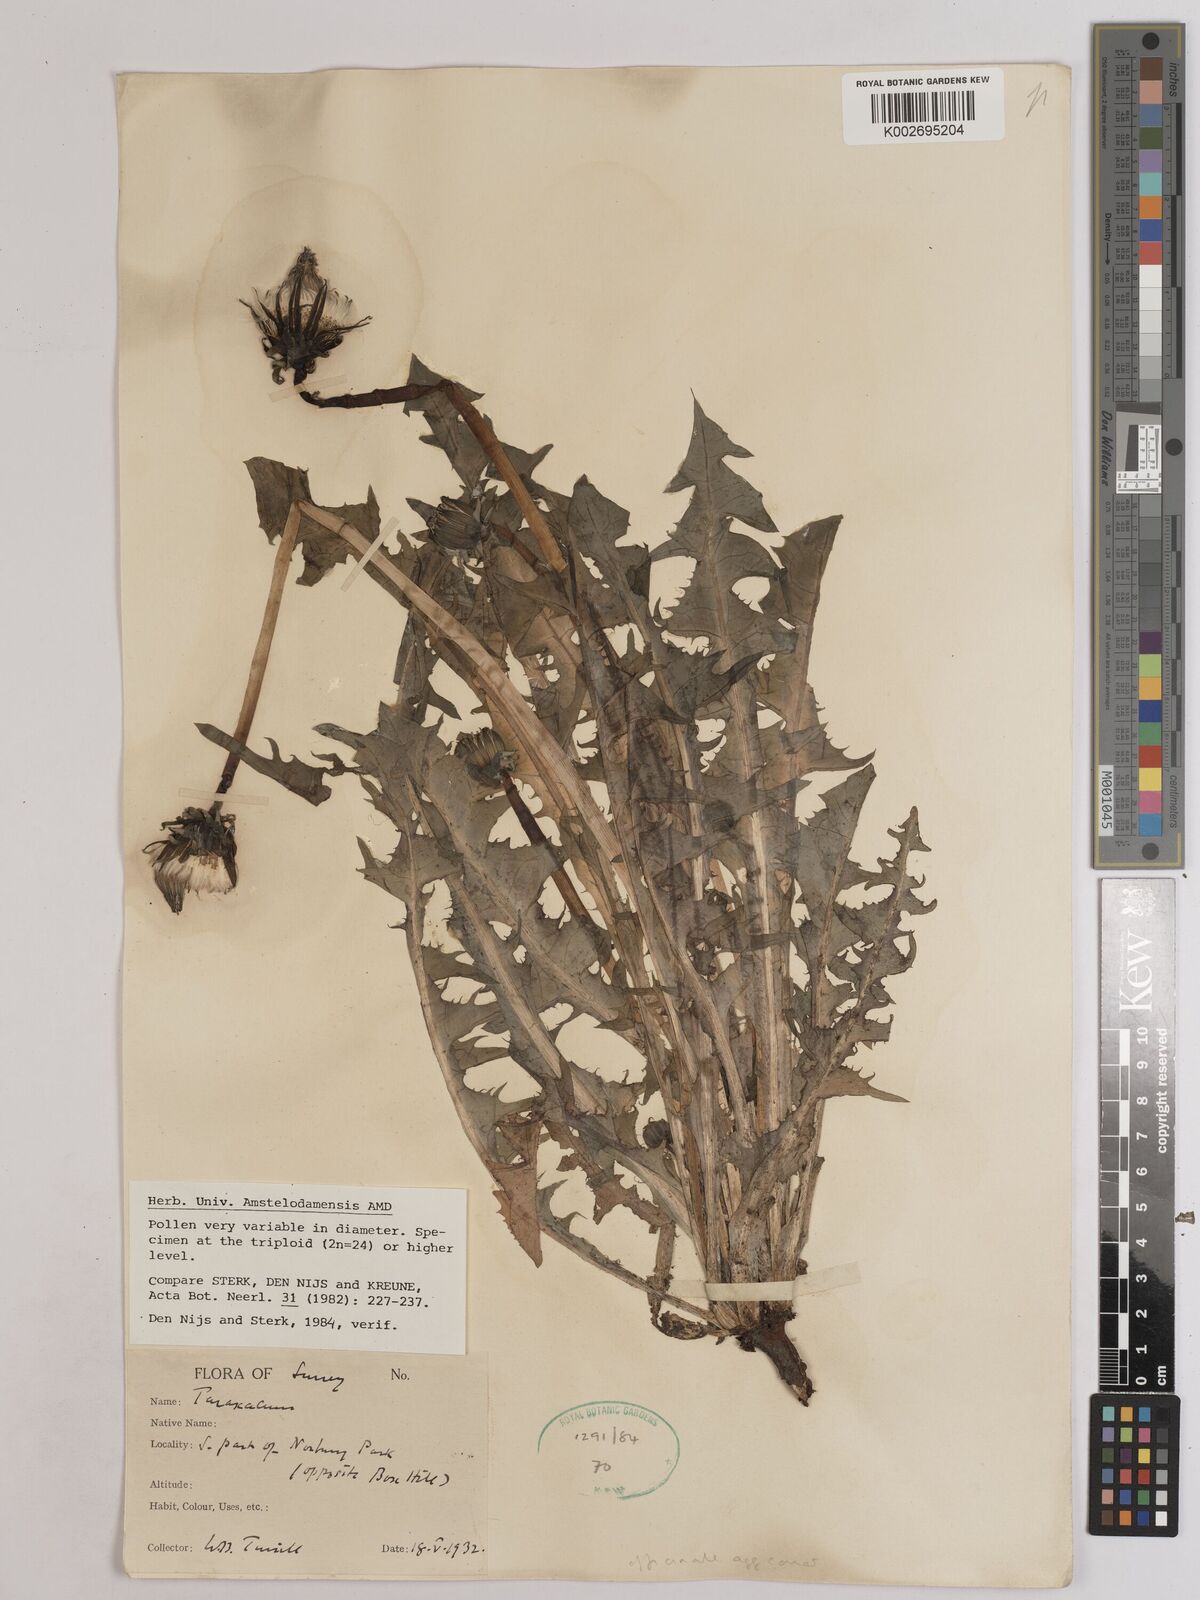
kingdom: Plantae
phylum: Tracheophyta
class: Magnoliopsida
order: Asterales
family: Asteraceae
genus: Taraxacum
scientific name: Taraxacum officinale
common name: Common dandelion
